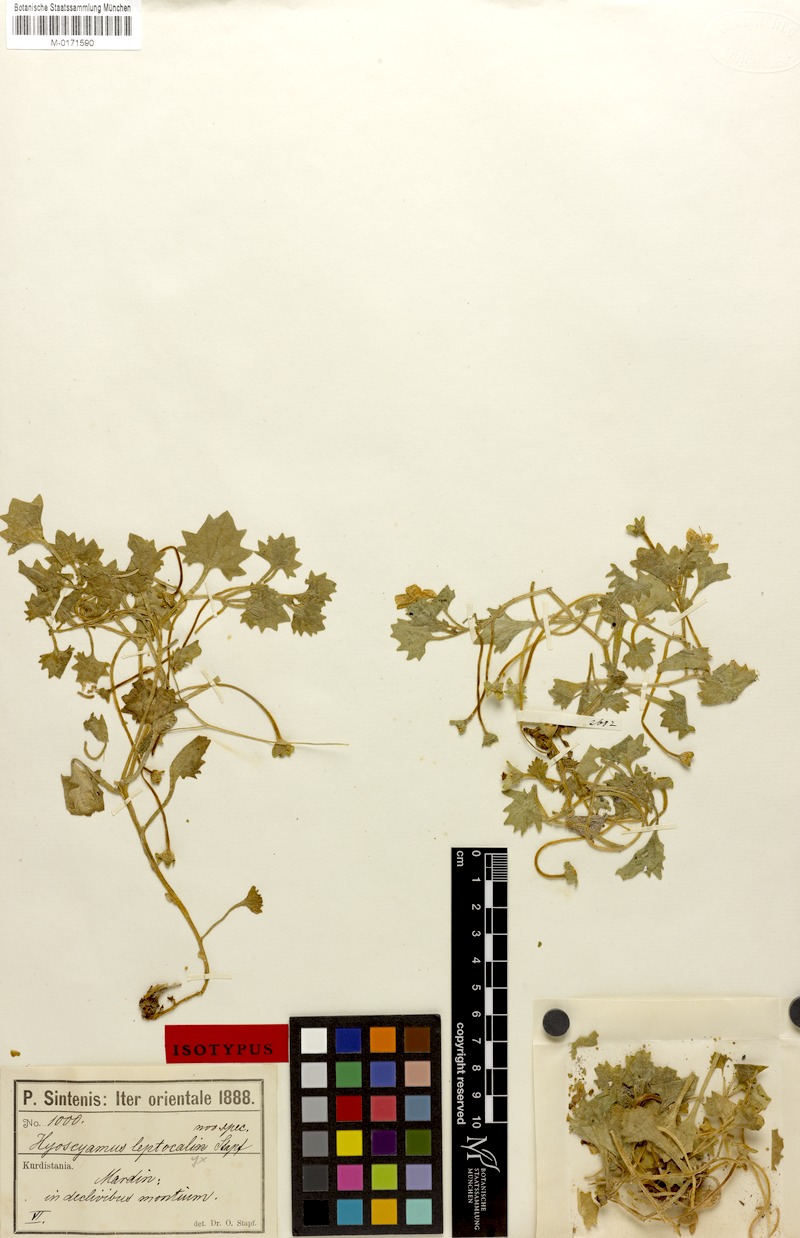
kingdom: Plantae
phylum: Tracheophyta
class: Magnoliopsida
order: Solanales
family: Solanaceae
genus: Hyoscyamus
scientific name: Hyoscyamus leptocalyx
